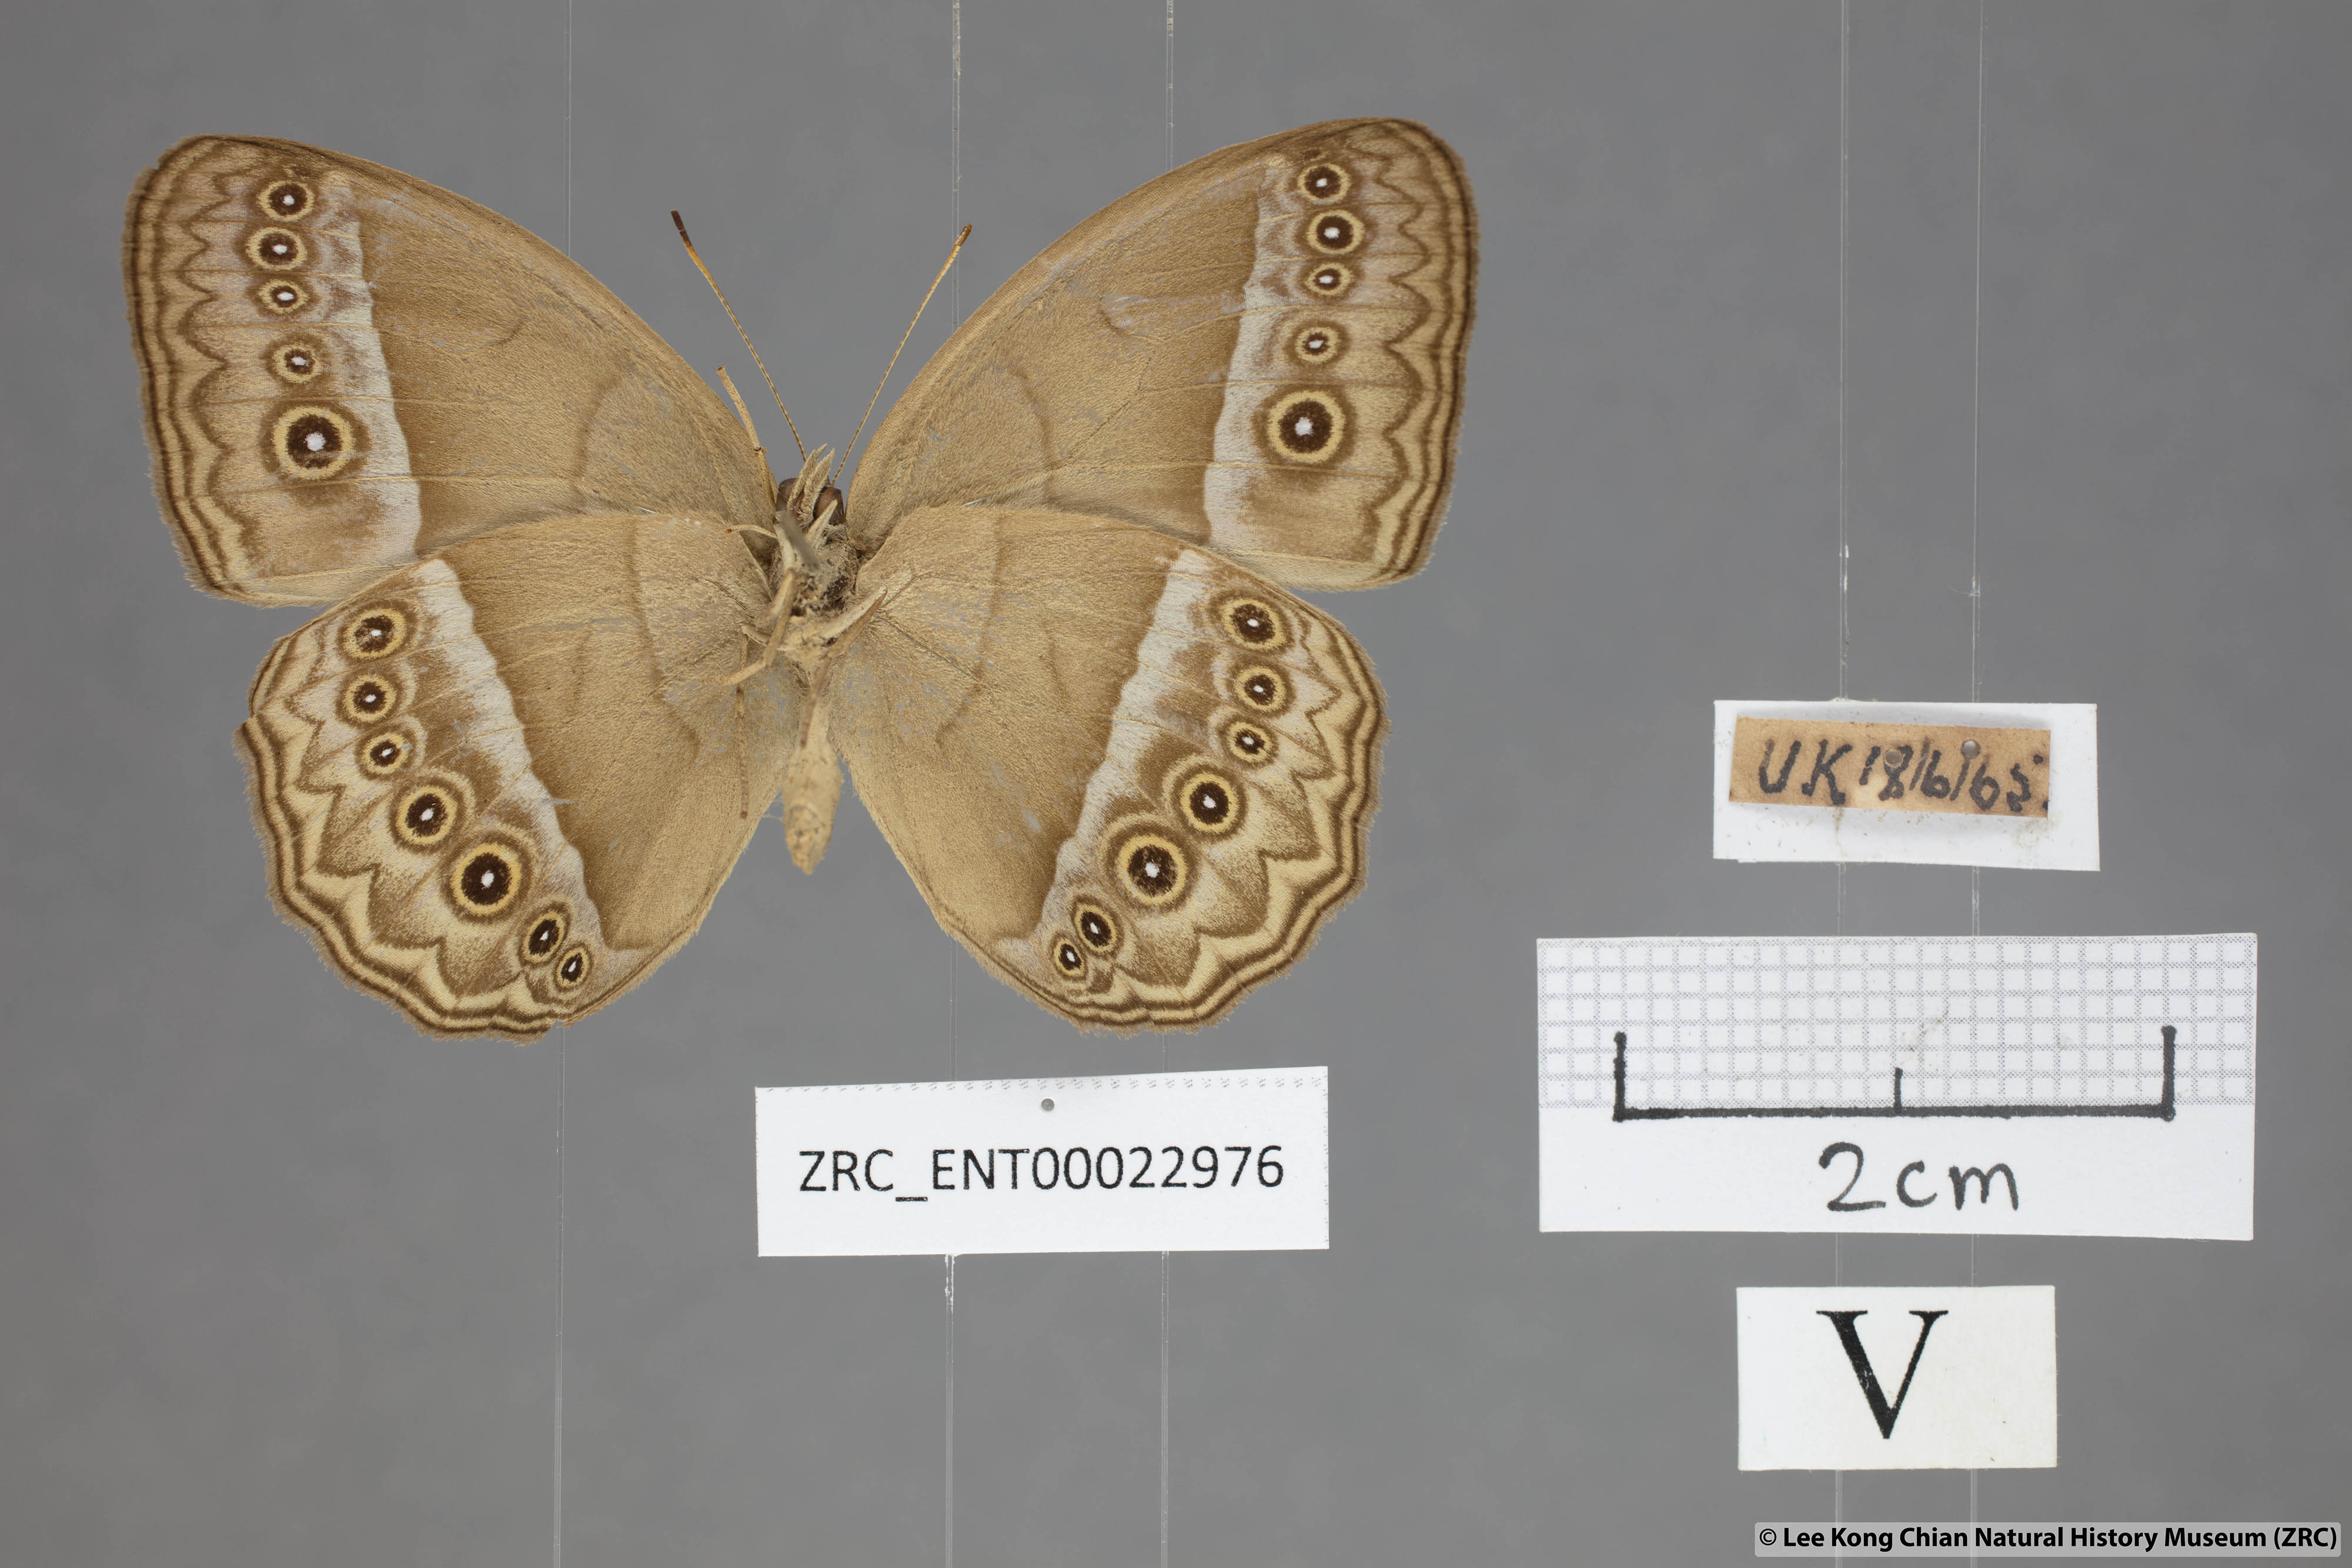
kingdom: Animalia
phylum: Arthropoda
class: Insecta
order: Lepidoptera
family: Nymphalidae
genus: Mycalesis
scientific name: Mycalesis orseis
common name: Purple bushbrown
